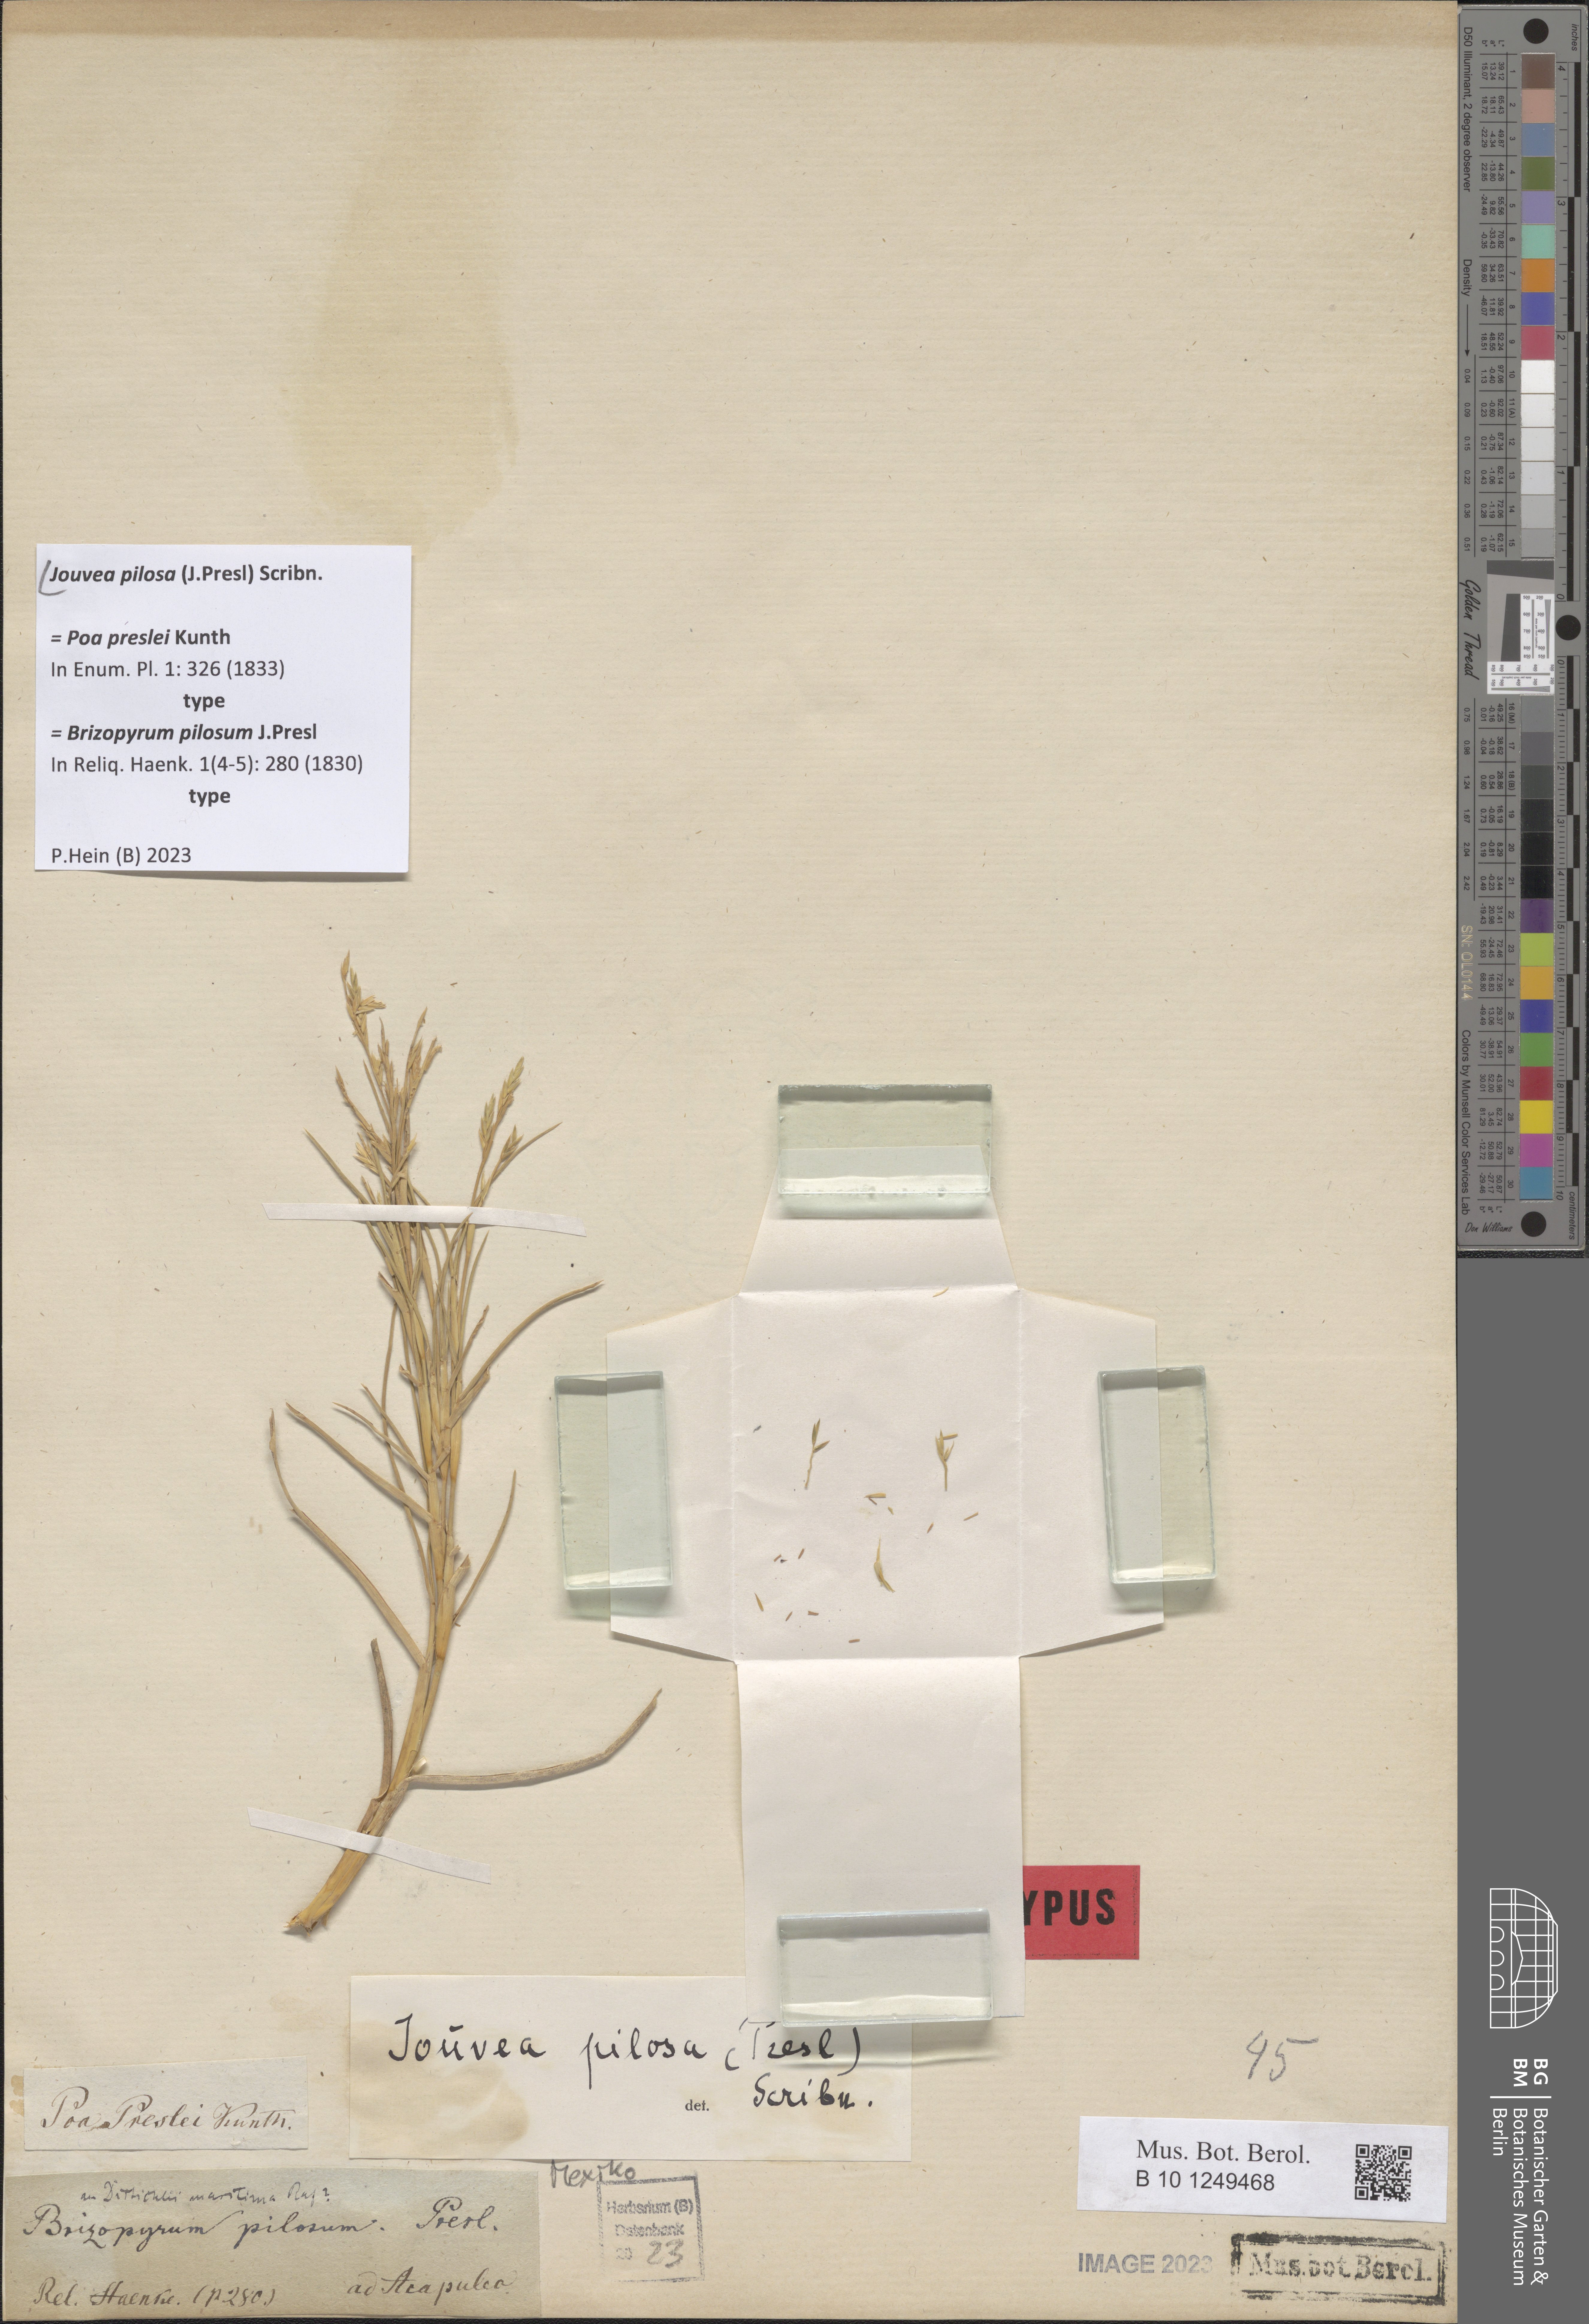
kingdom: Plantae
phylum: Tracheophyta
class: Liliopsida
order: Poales
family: Poaceae
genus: Jouvea
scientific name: Jouvea pilosa
